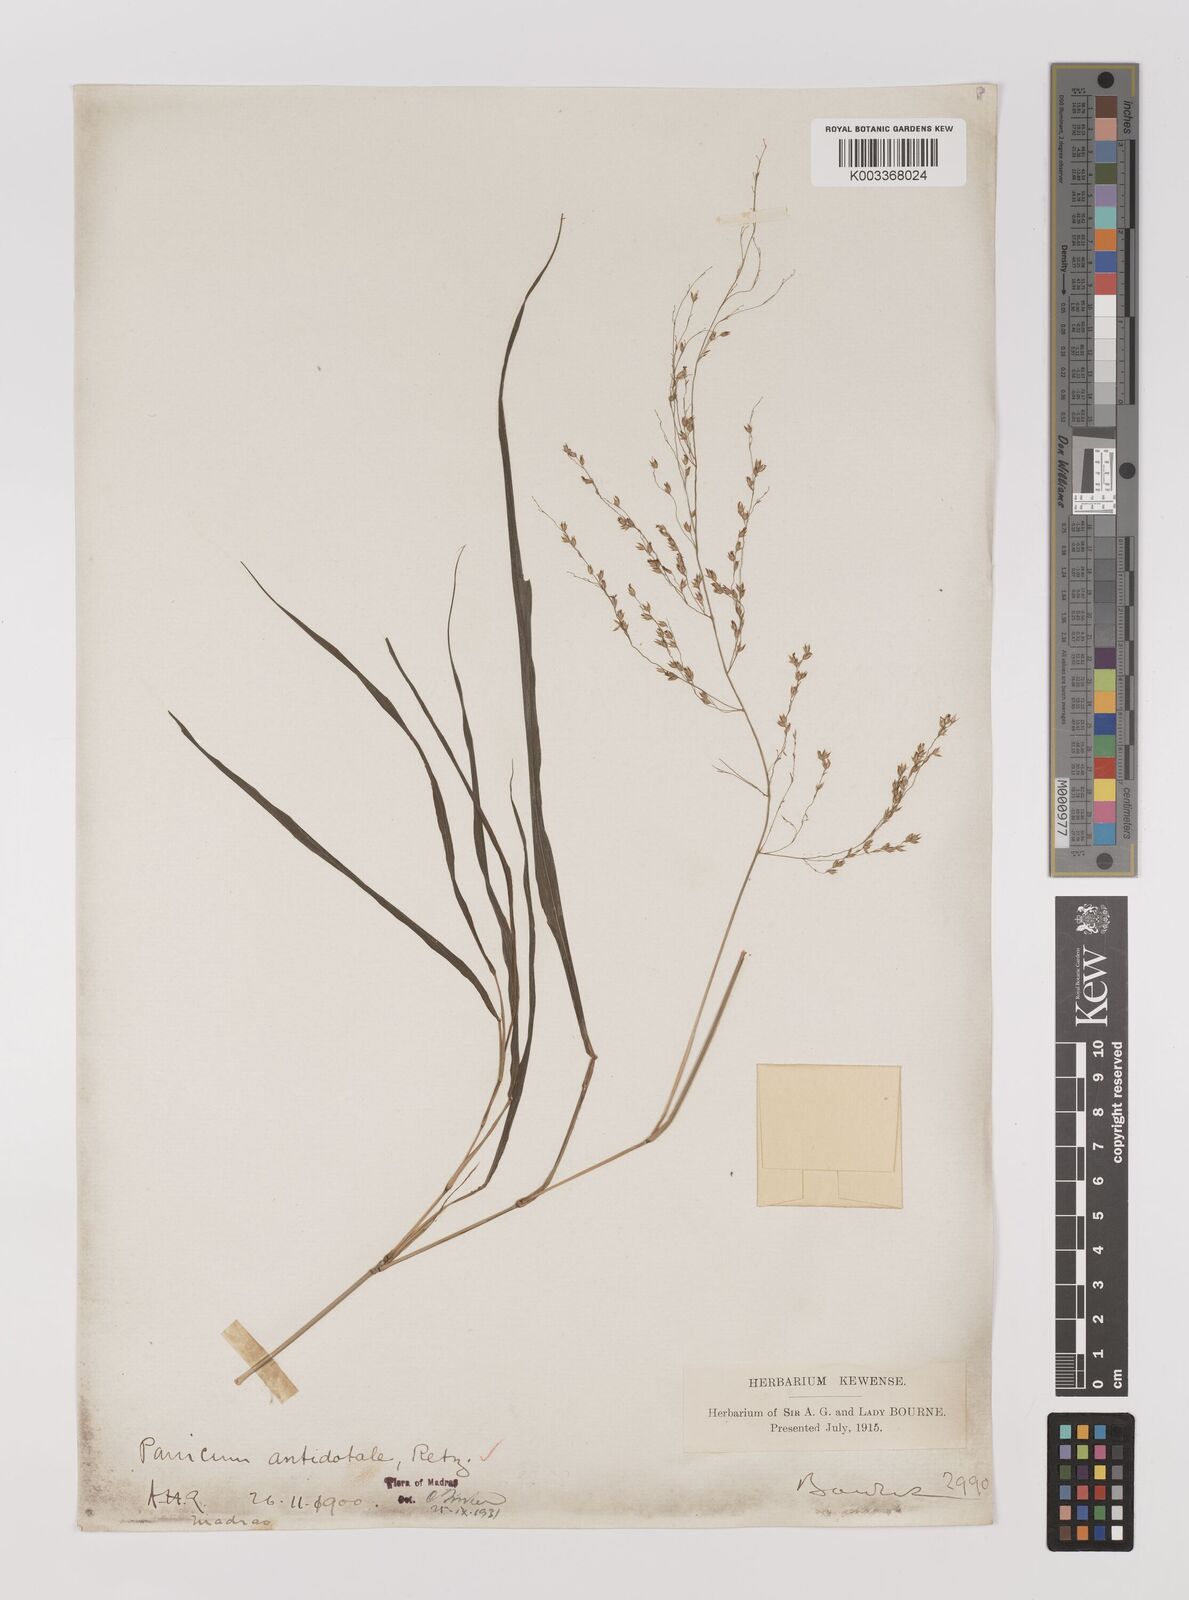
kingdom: Plantae
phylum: Tracheophyta
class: Liliopsida
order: Poales
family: Poaceae
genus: Panicum
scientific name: Panicum antidotale
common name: Blue panicum
